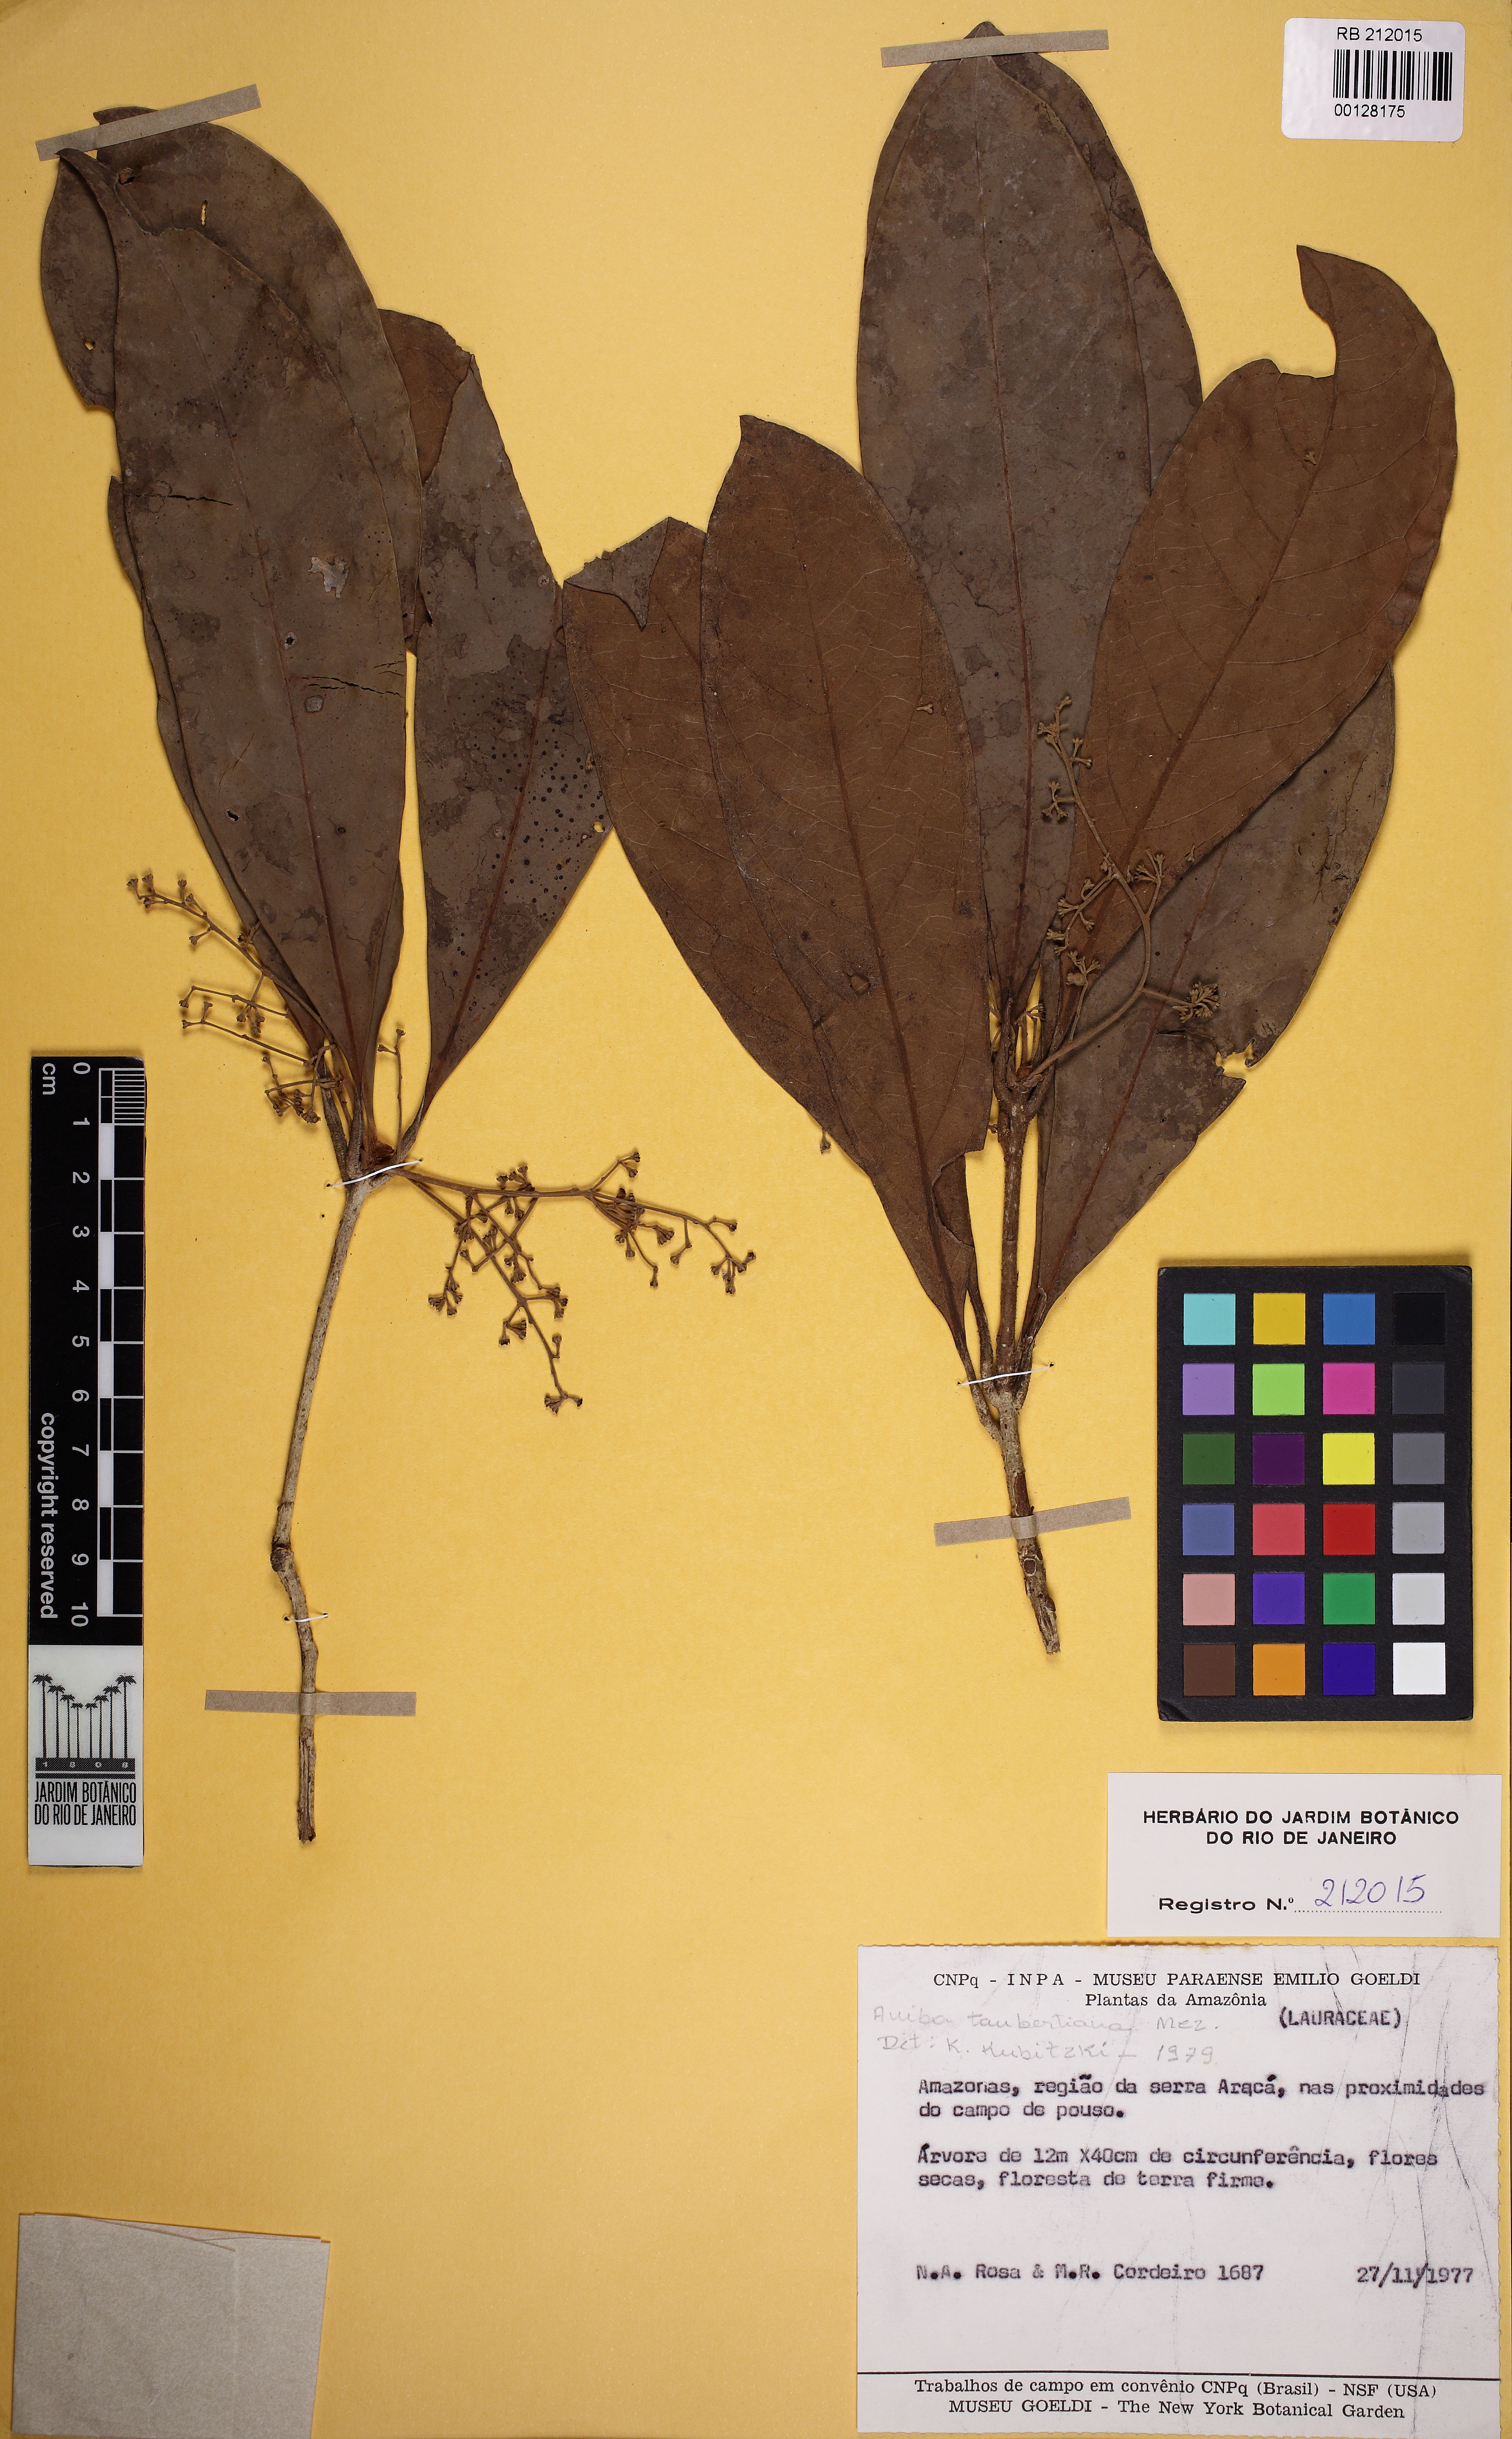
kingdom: Plantae
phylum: Tracheophyta
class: Magnoliopsida
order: Laurales
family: Lauraceae
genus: Aniba
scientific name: Aniba taubertiana
